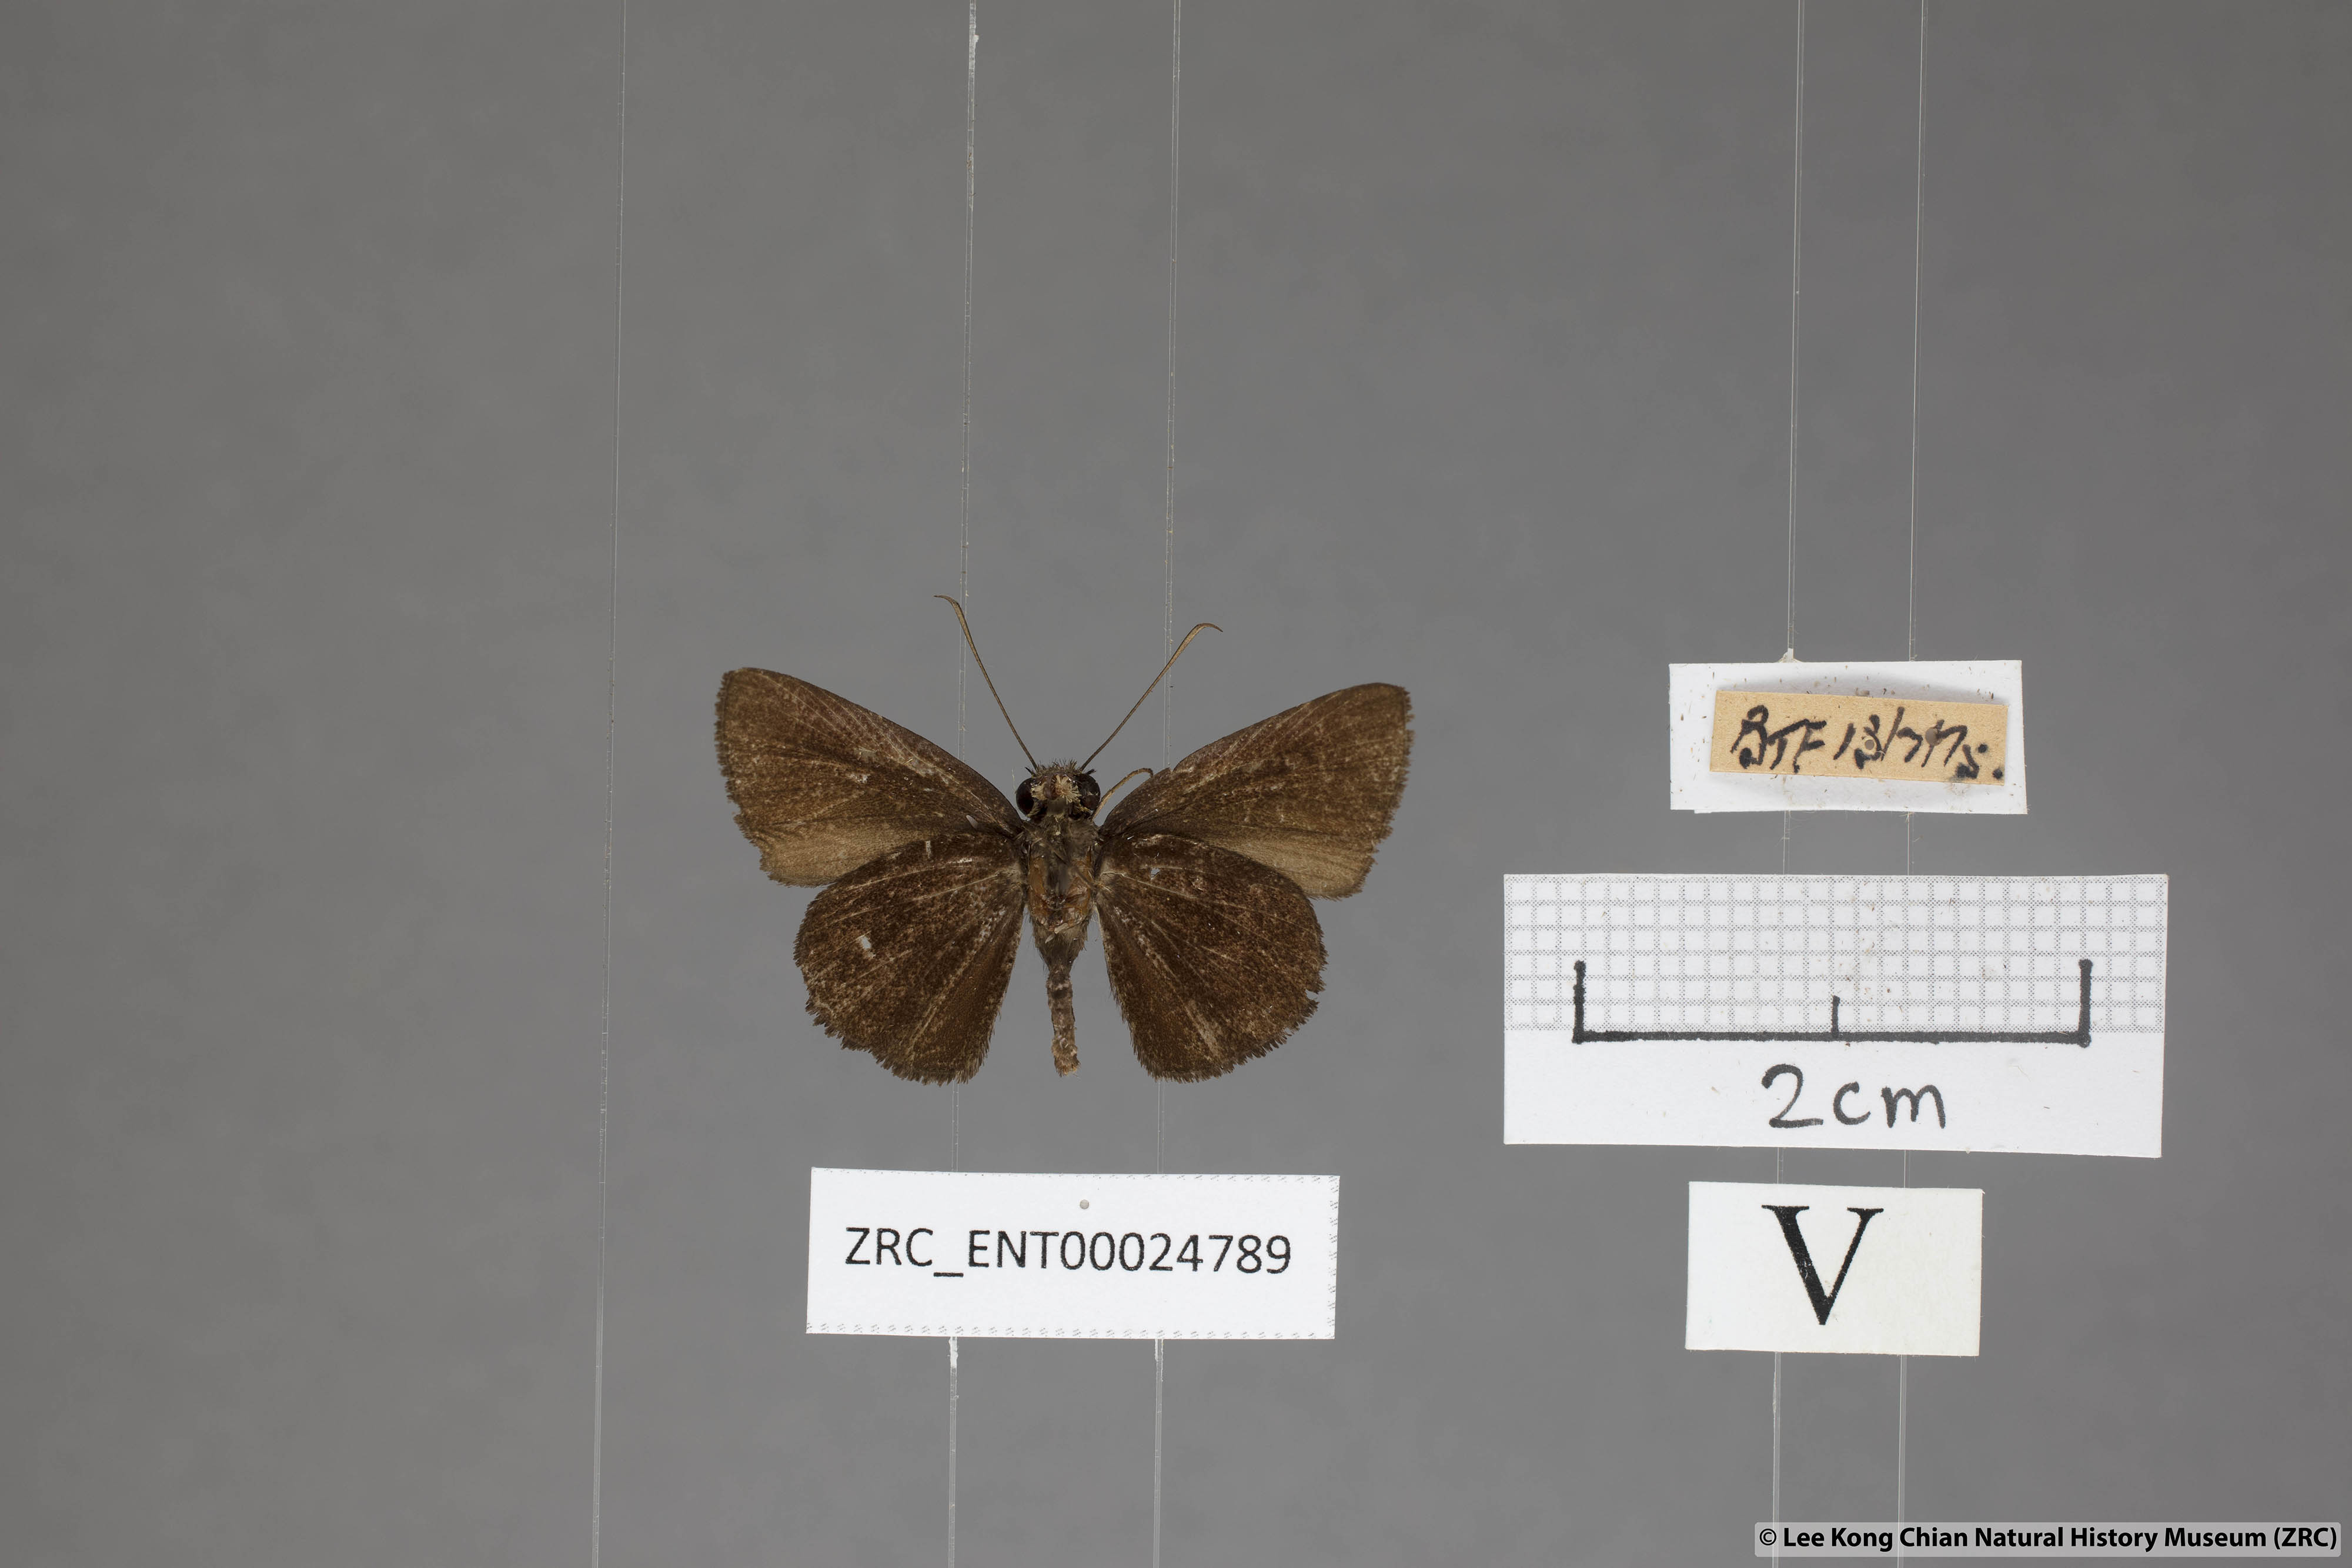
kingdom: Animalia
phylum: Arthropoda
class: Insecta
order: Lepidoptera
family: Hesperiidae
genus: Iambrix
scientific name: Iambrix
